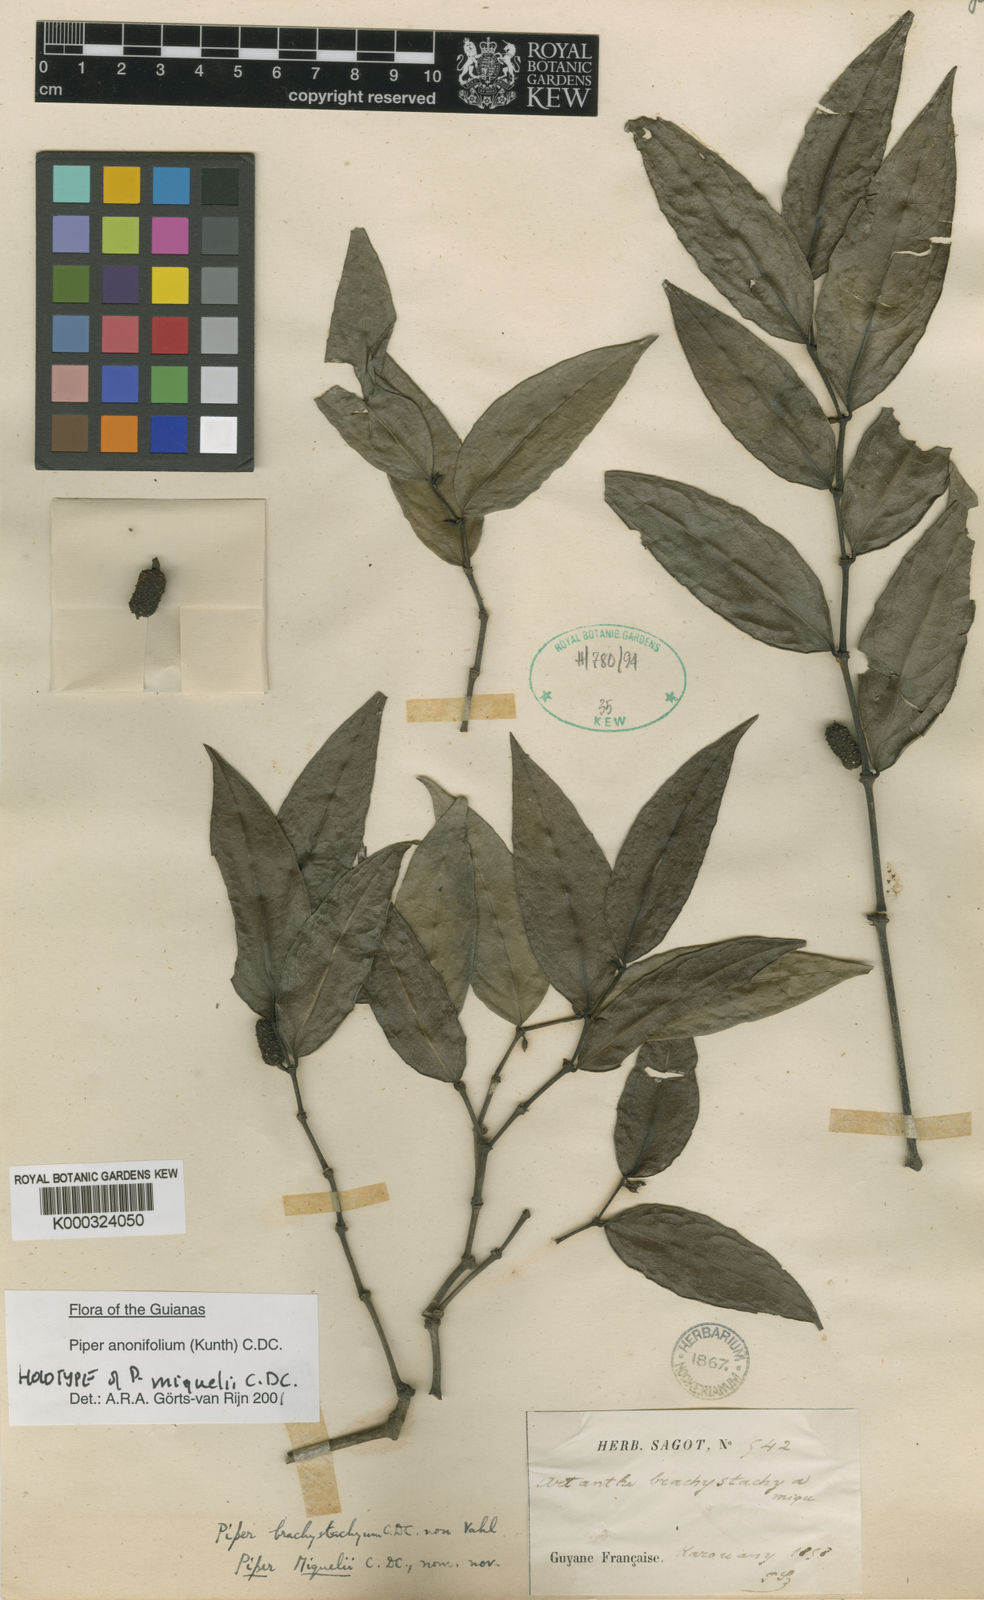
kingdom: Plantae
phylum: Tracheophyta
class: Magnoliopsida
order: Piperales
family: Piperaceae
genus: Piper
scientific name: Piper
